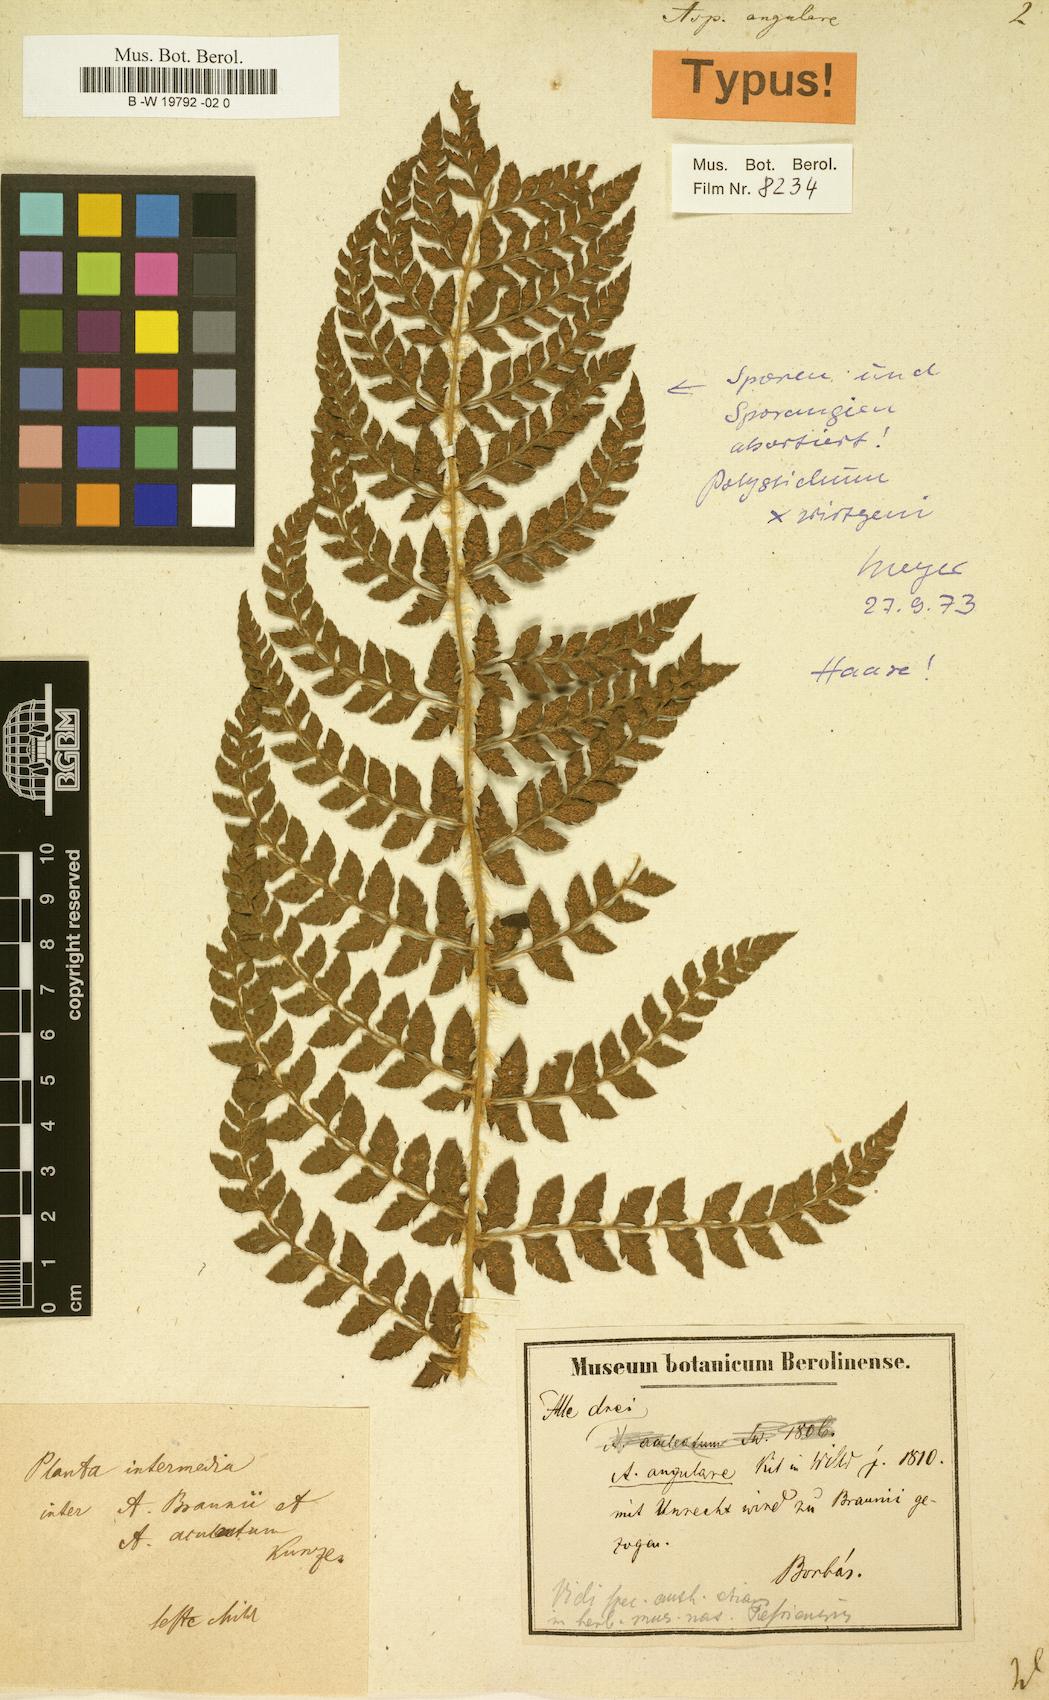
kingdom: Plantae
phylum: Tracheophyta
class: Polypodiopsida
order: Polypodiales
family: Dryopteridaceae
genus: Polystichum
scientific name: Polystichum setiferum
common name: Soft shield-fern
